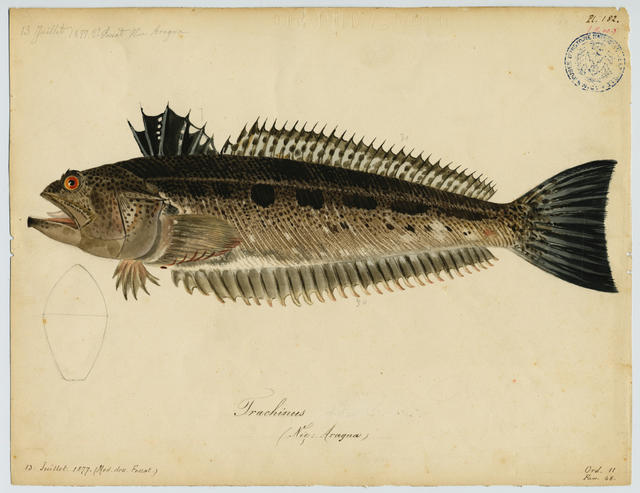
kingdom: Animalia
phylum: Chordata
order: Perciformes
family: Trachinidae
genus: Trachinus
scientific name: Trachinus araneus
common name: Spotted weever
